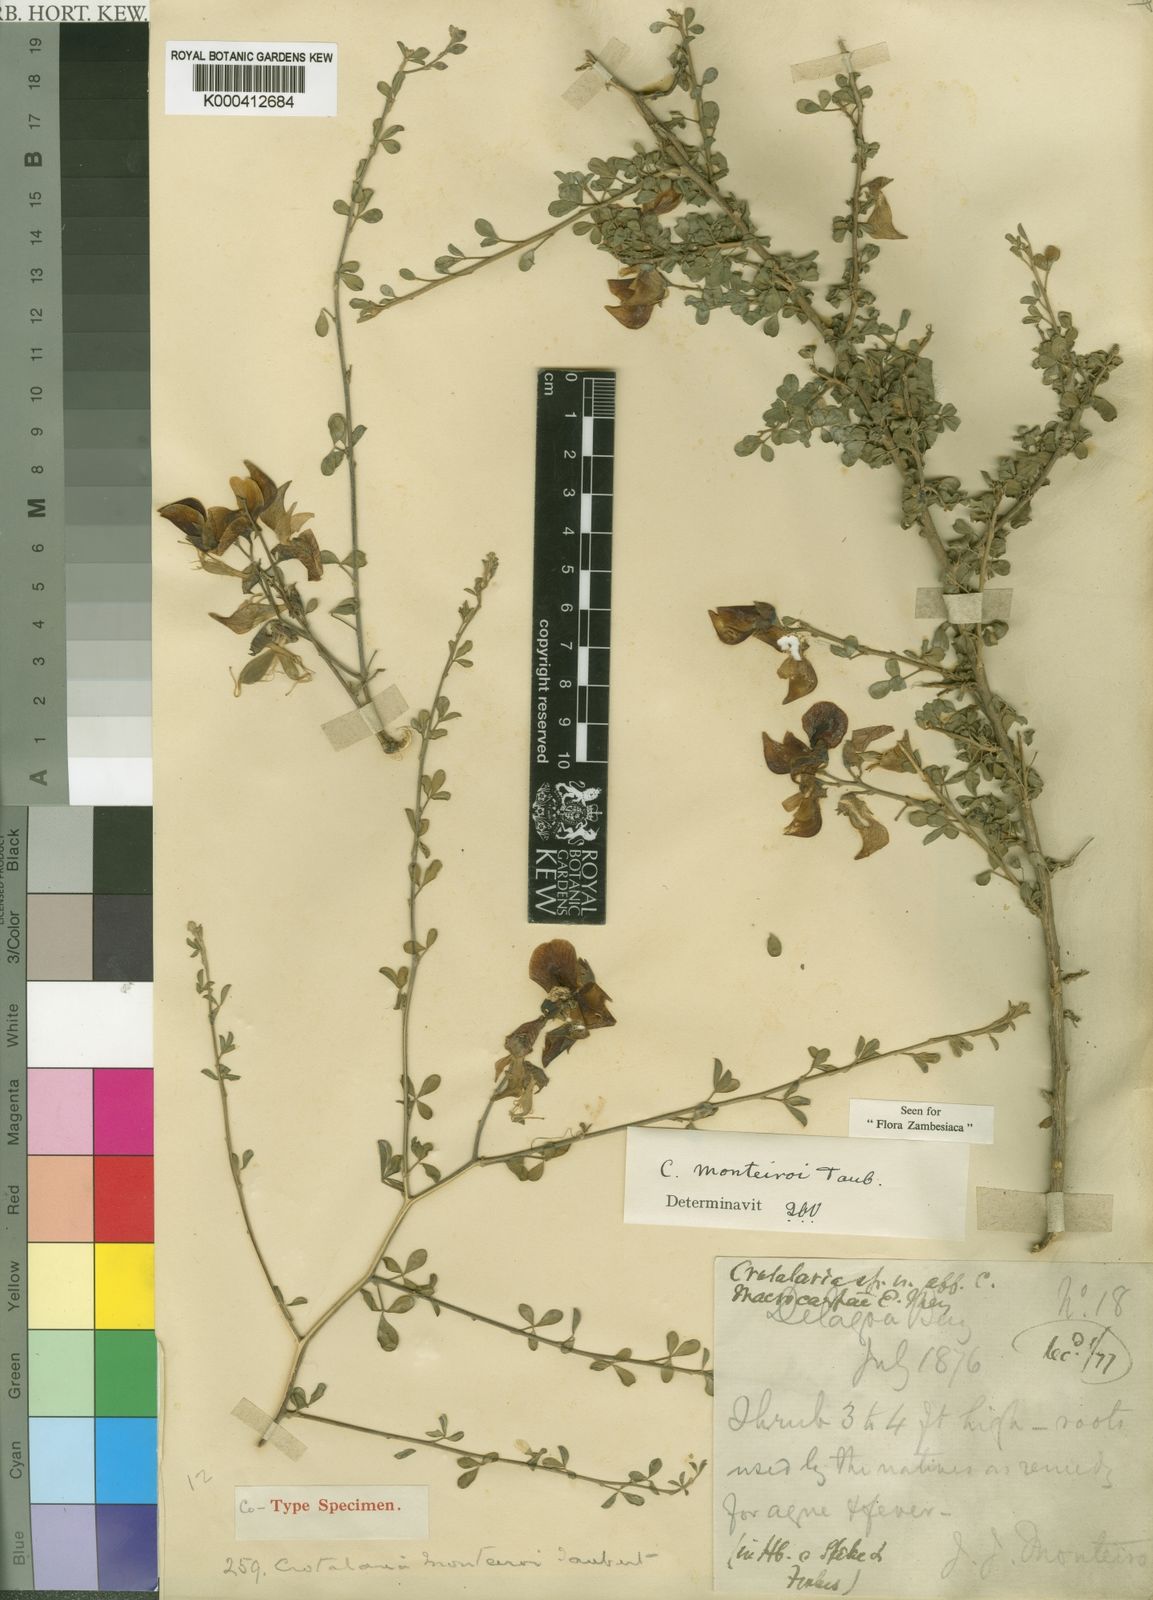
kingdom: Plantae
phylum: Tracheophyta
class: Magnoliopsida
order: Fabales
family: Fabaceae
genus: Crotalaria
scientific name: Crotalaria monteiroi
